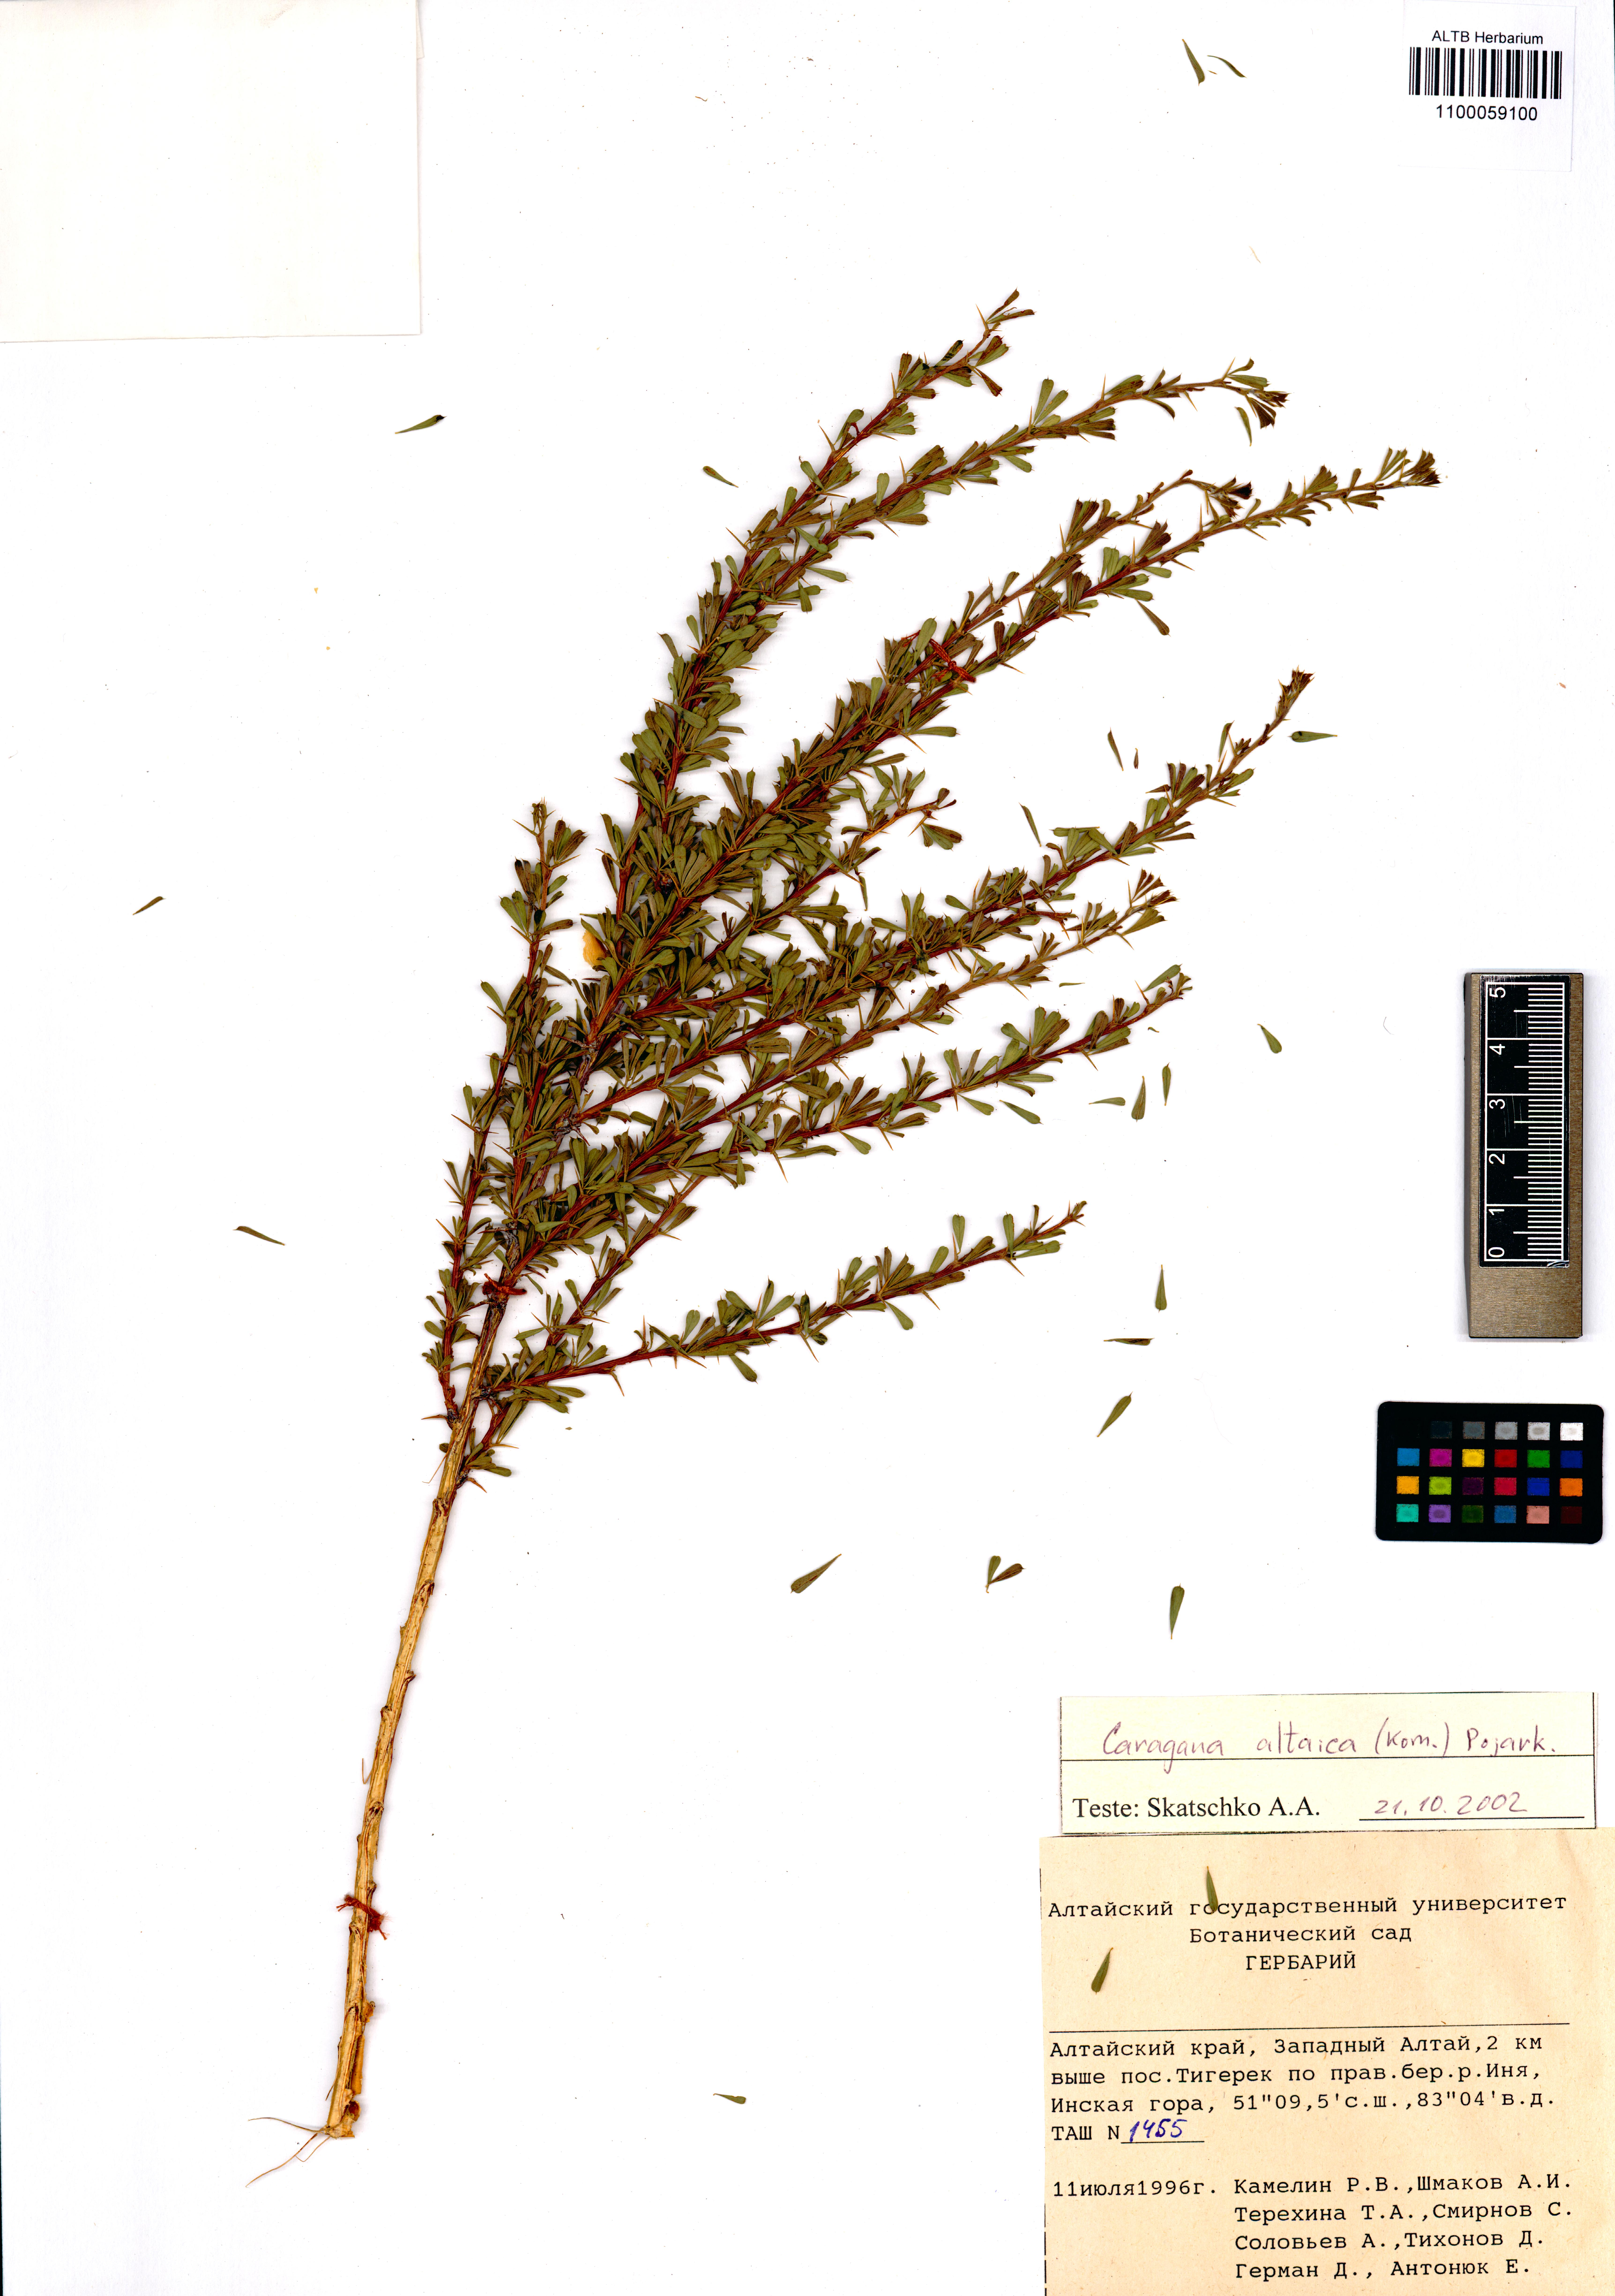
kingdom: Plantae
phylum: Tracheophyta
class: Magnoliopsida
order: Fabales
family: Fabaceae
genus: Caragana
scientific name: Caragana pygmaea
